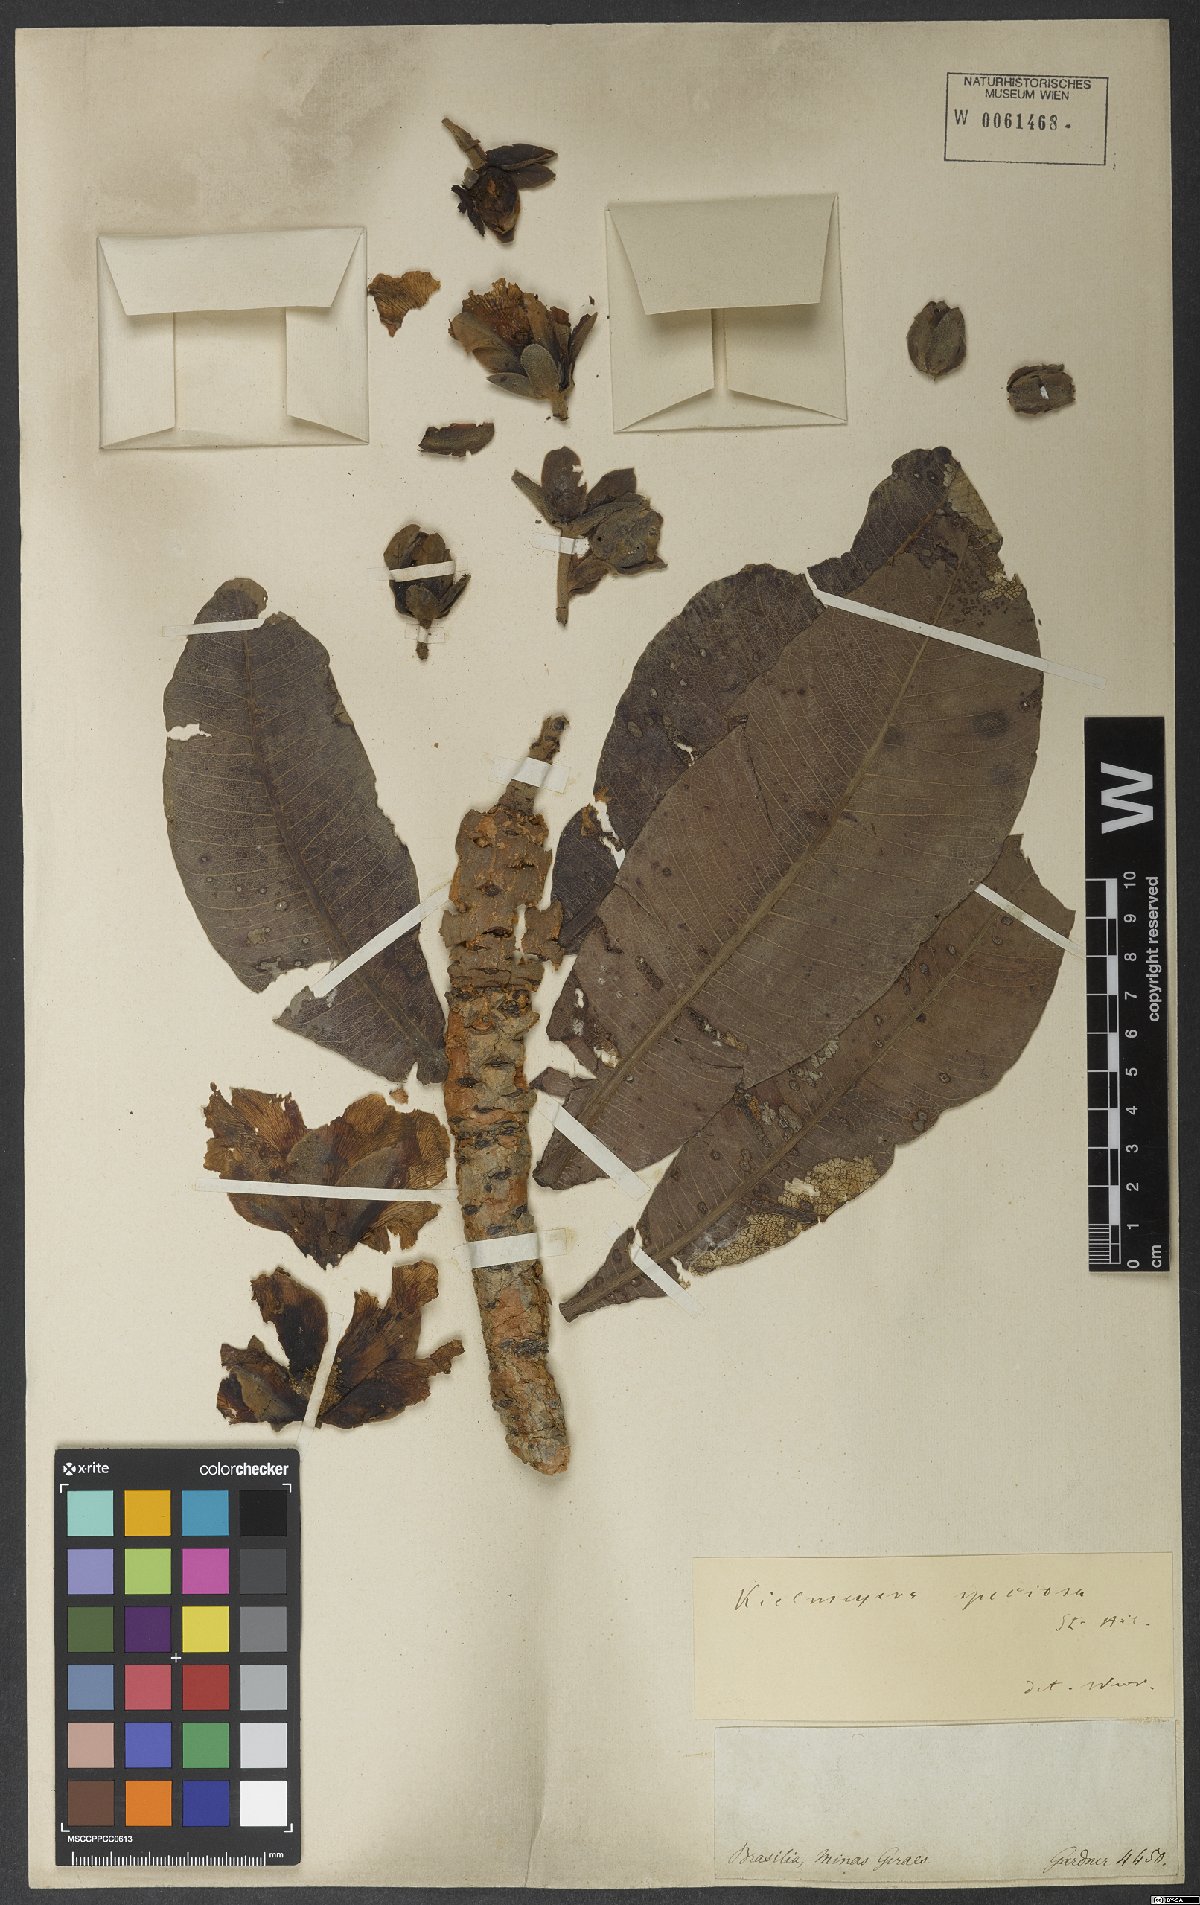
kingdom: Plantae
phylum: Tracheophyta
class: Magnoliopsida
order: Malpighiales
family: Calophyllaceae
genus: Kielmeyera
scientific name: Kielmeyera speciosa
